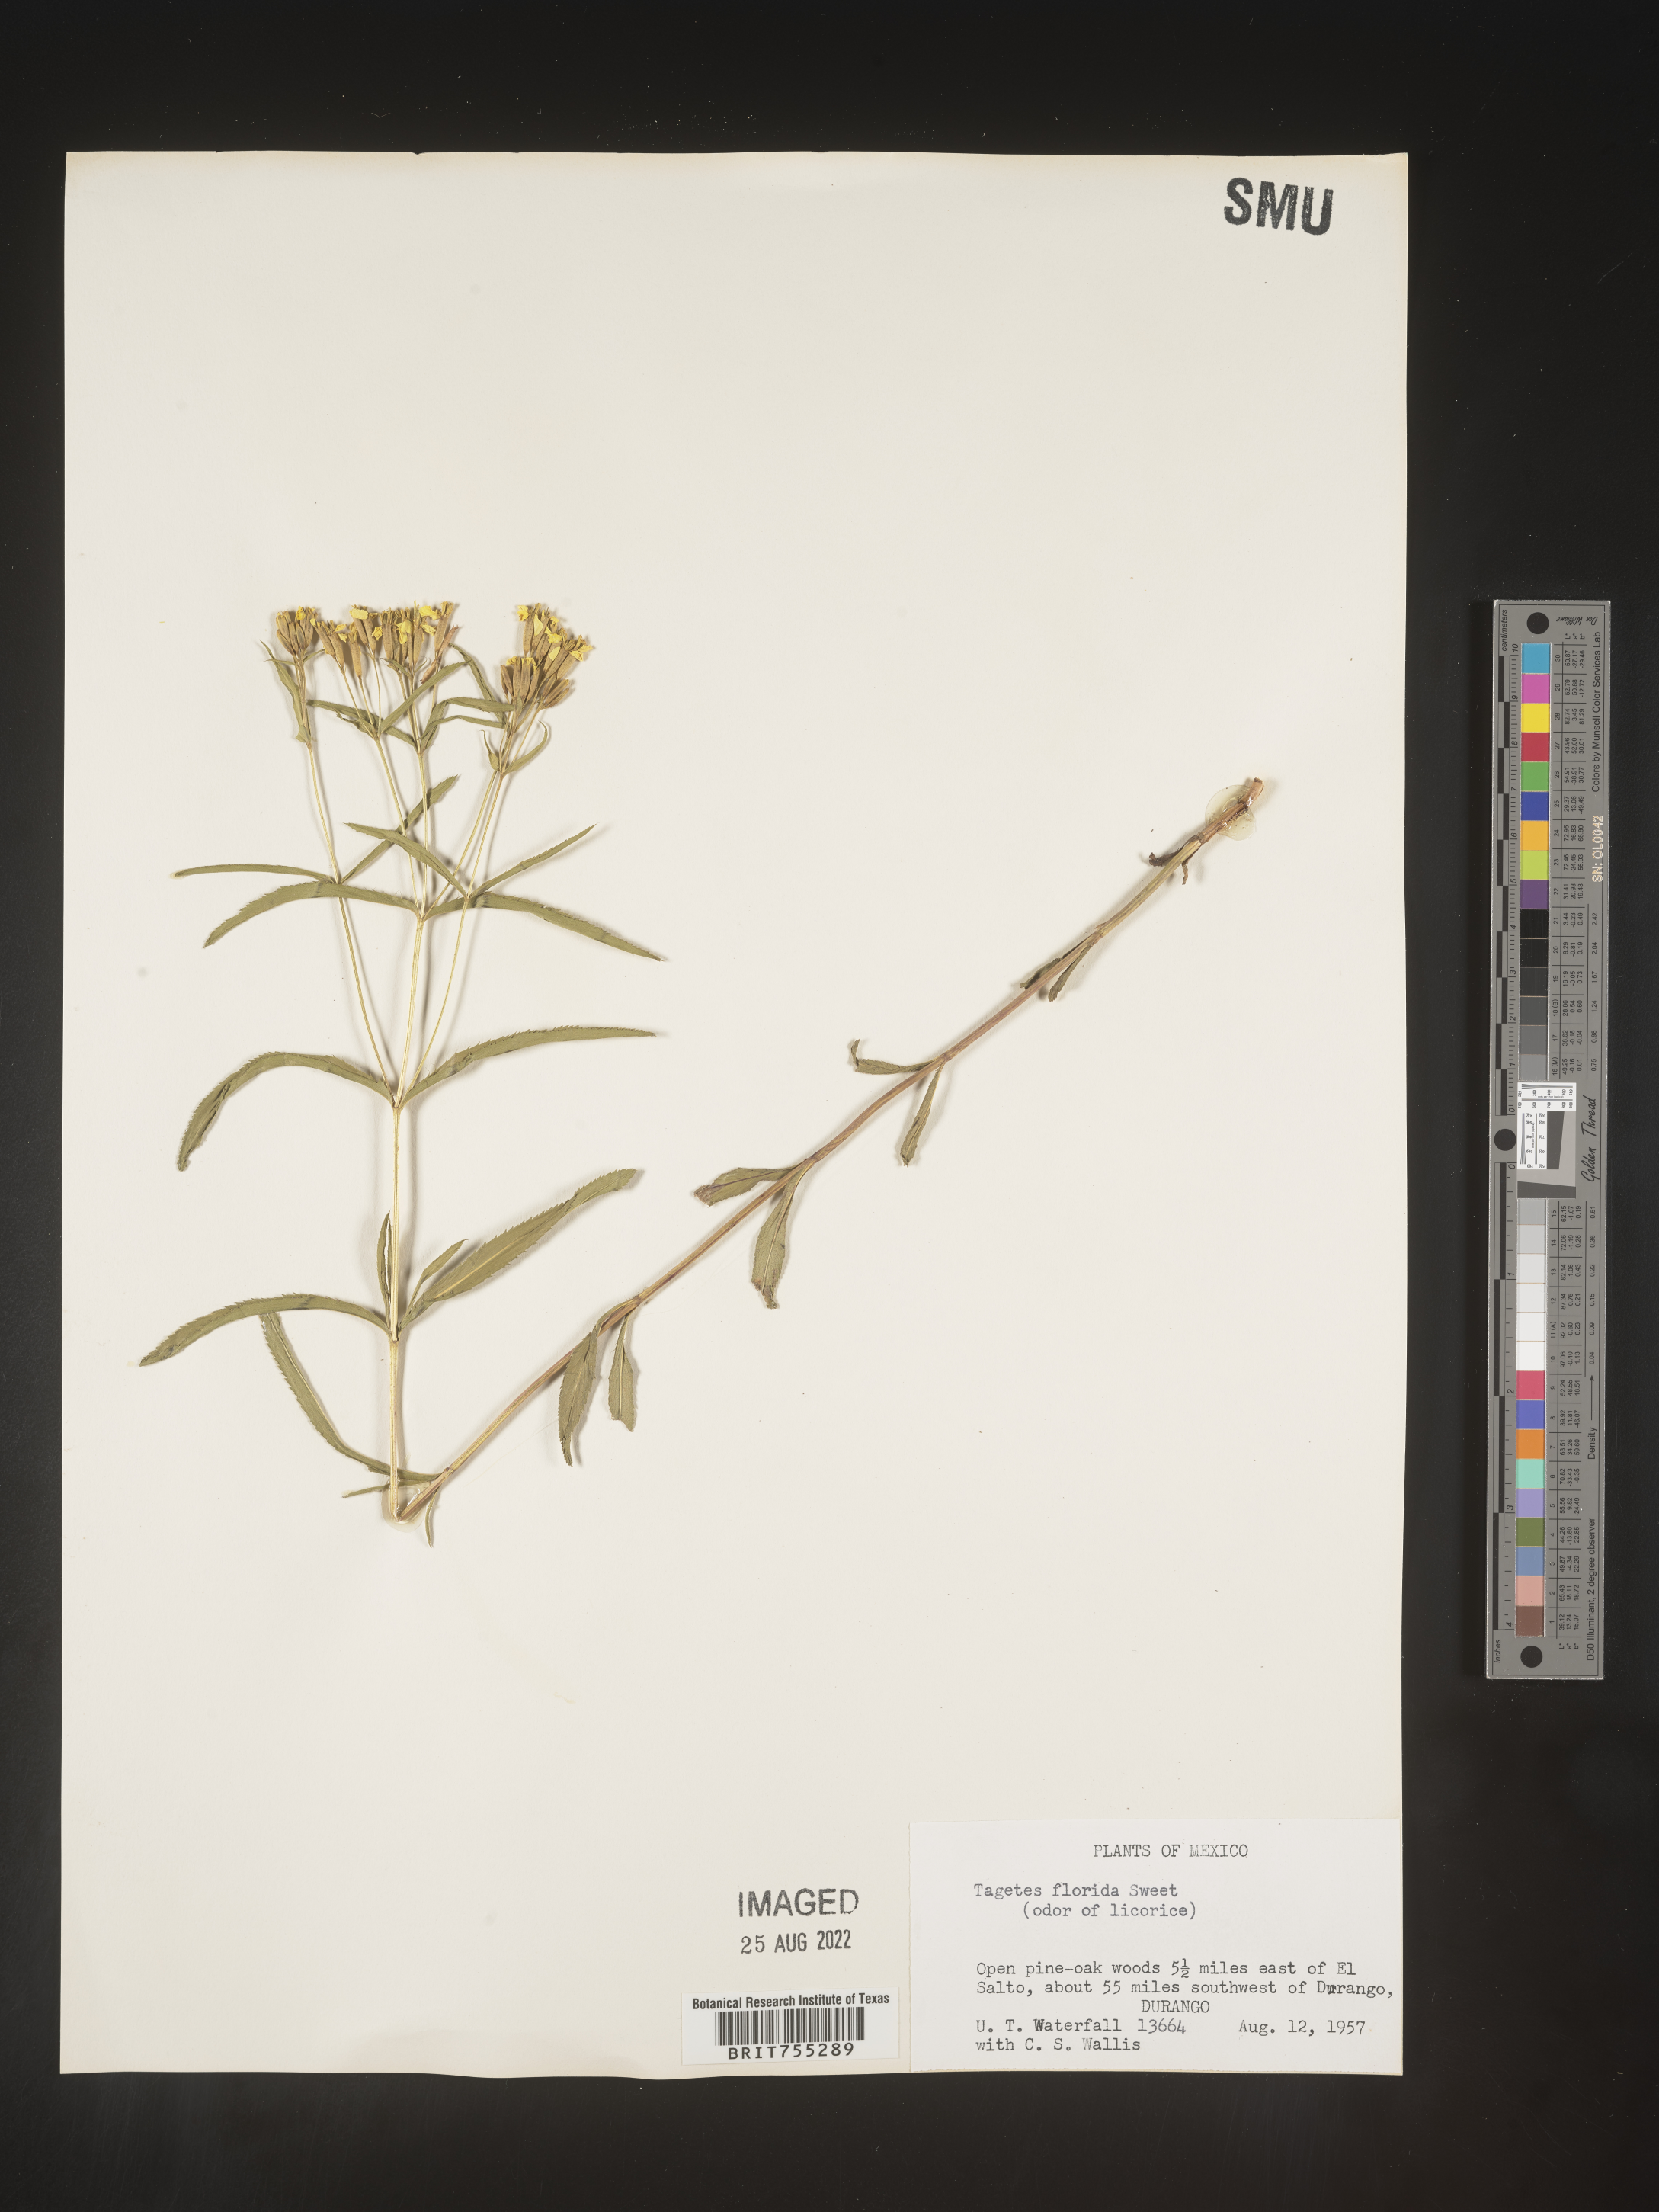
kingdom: Plantae
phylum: Tracheophyta
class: Magnoliopsida
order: Asterales
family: Asteraceae
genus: Tagetes
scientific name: Tagetes
